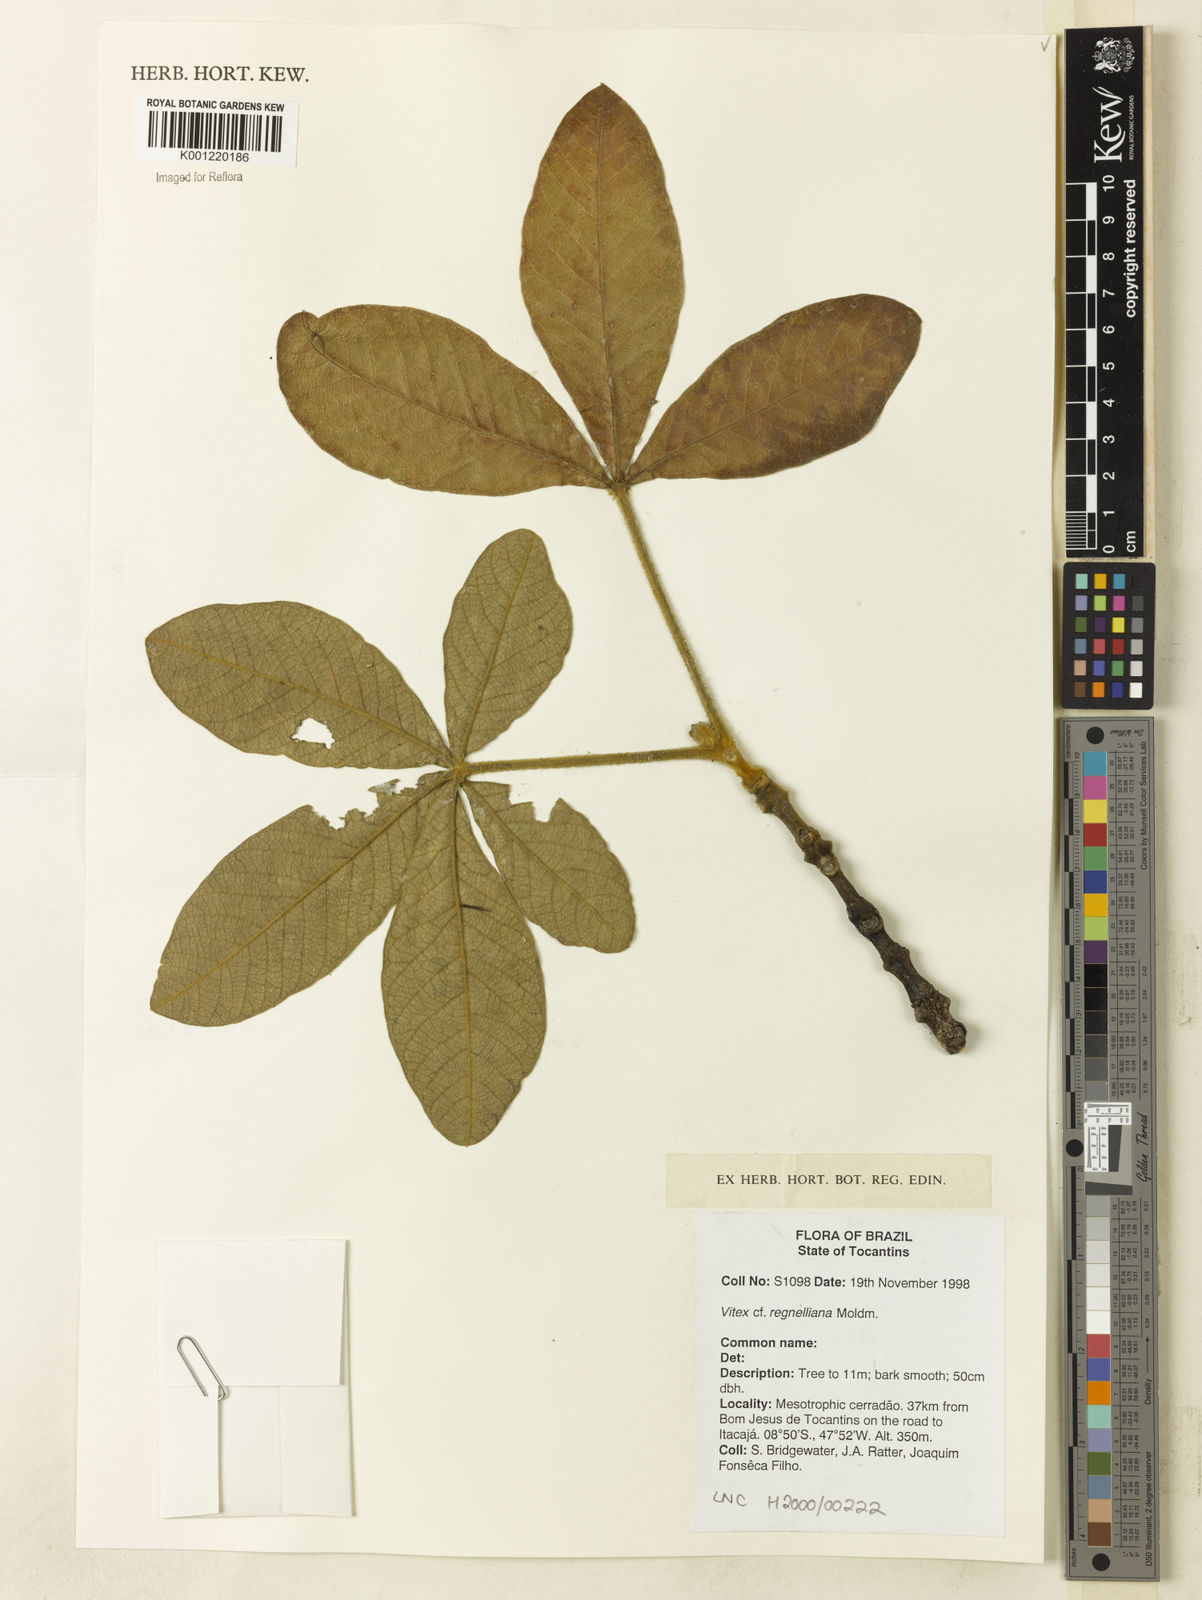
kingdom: Plantae
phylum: Tracheophyta
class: Magnoliopsida
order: Lamiales
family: Lamiaceae
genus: Vitex
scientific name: Vitex rufescens
